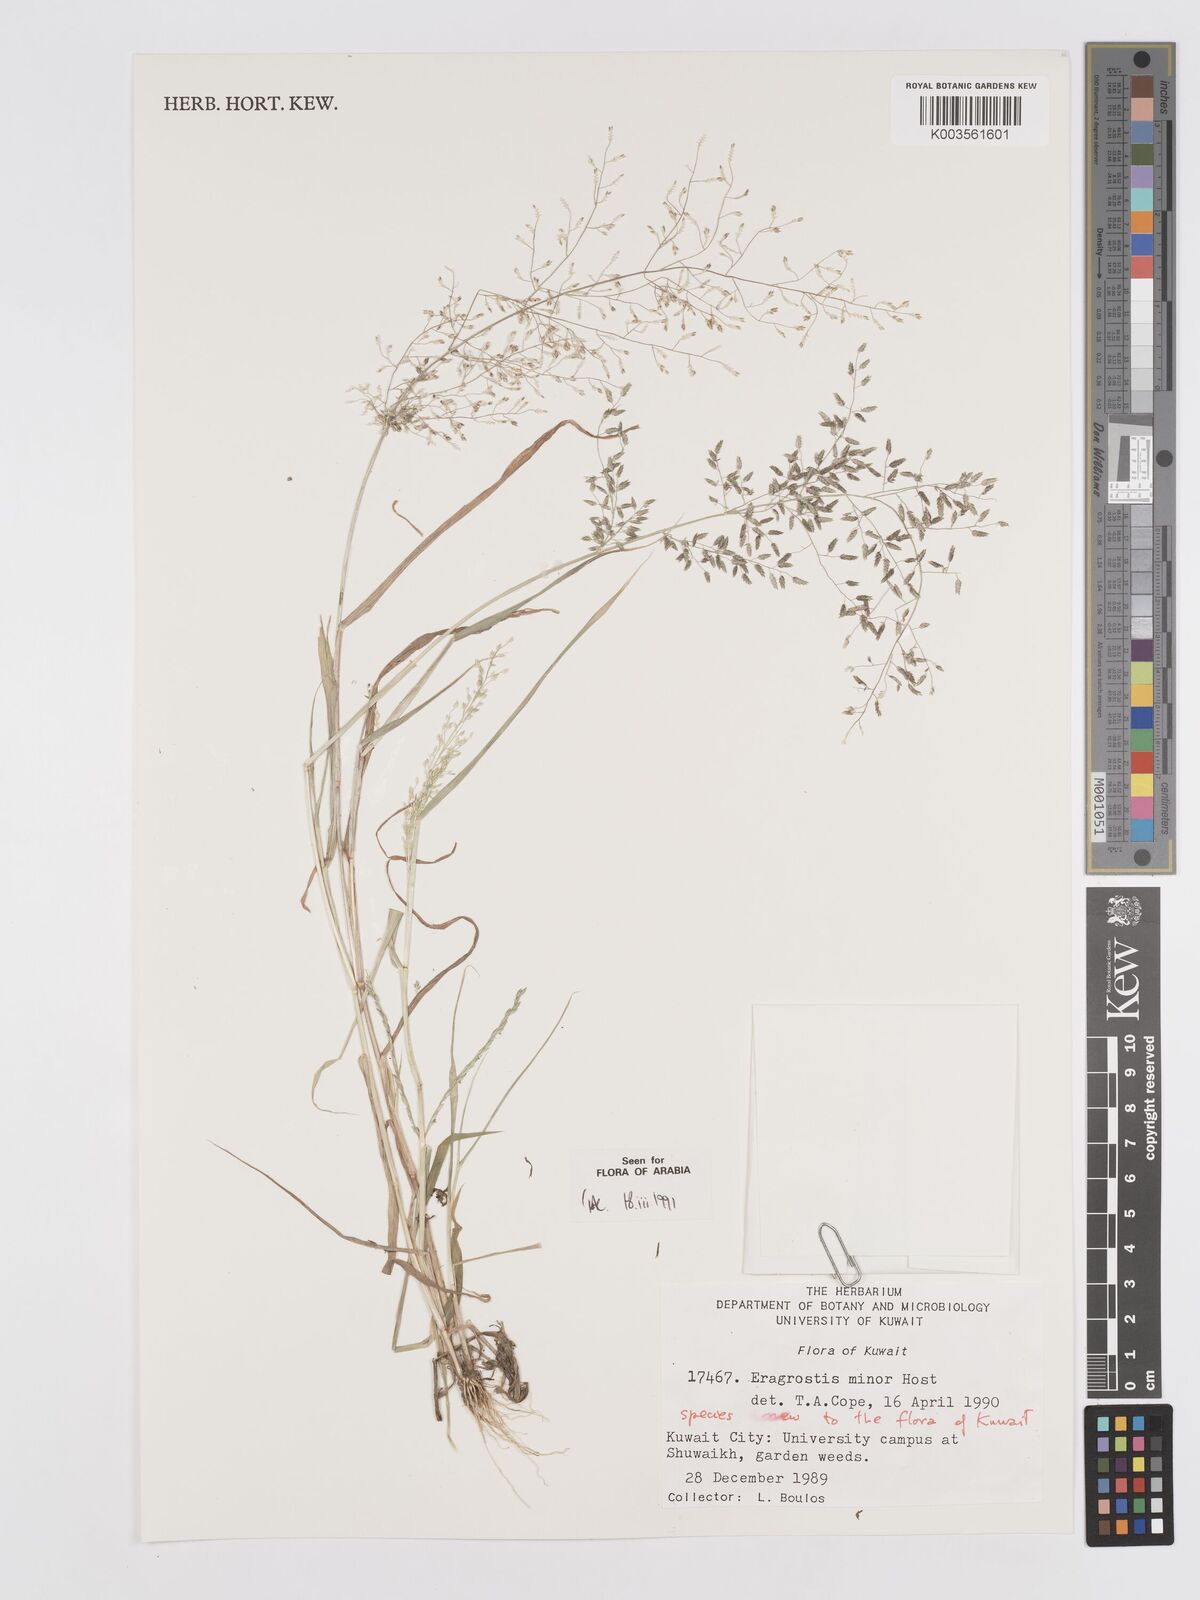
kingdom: Plantae
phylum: Tracheophyta
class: Liliopsida
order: Poales
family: Poaceae
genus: Eragrostis
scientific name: Eragrostis minor
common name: Small love-grass
